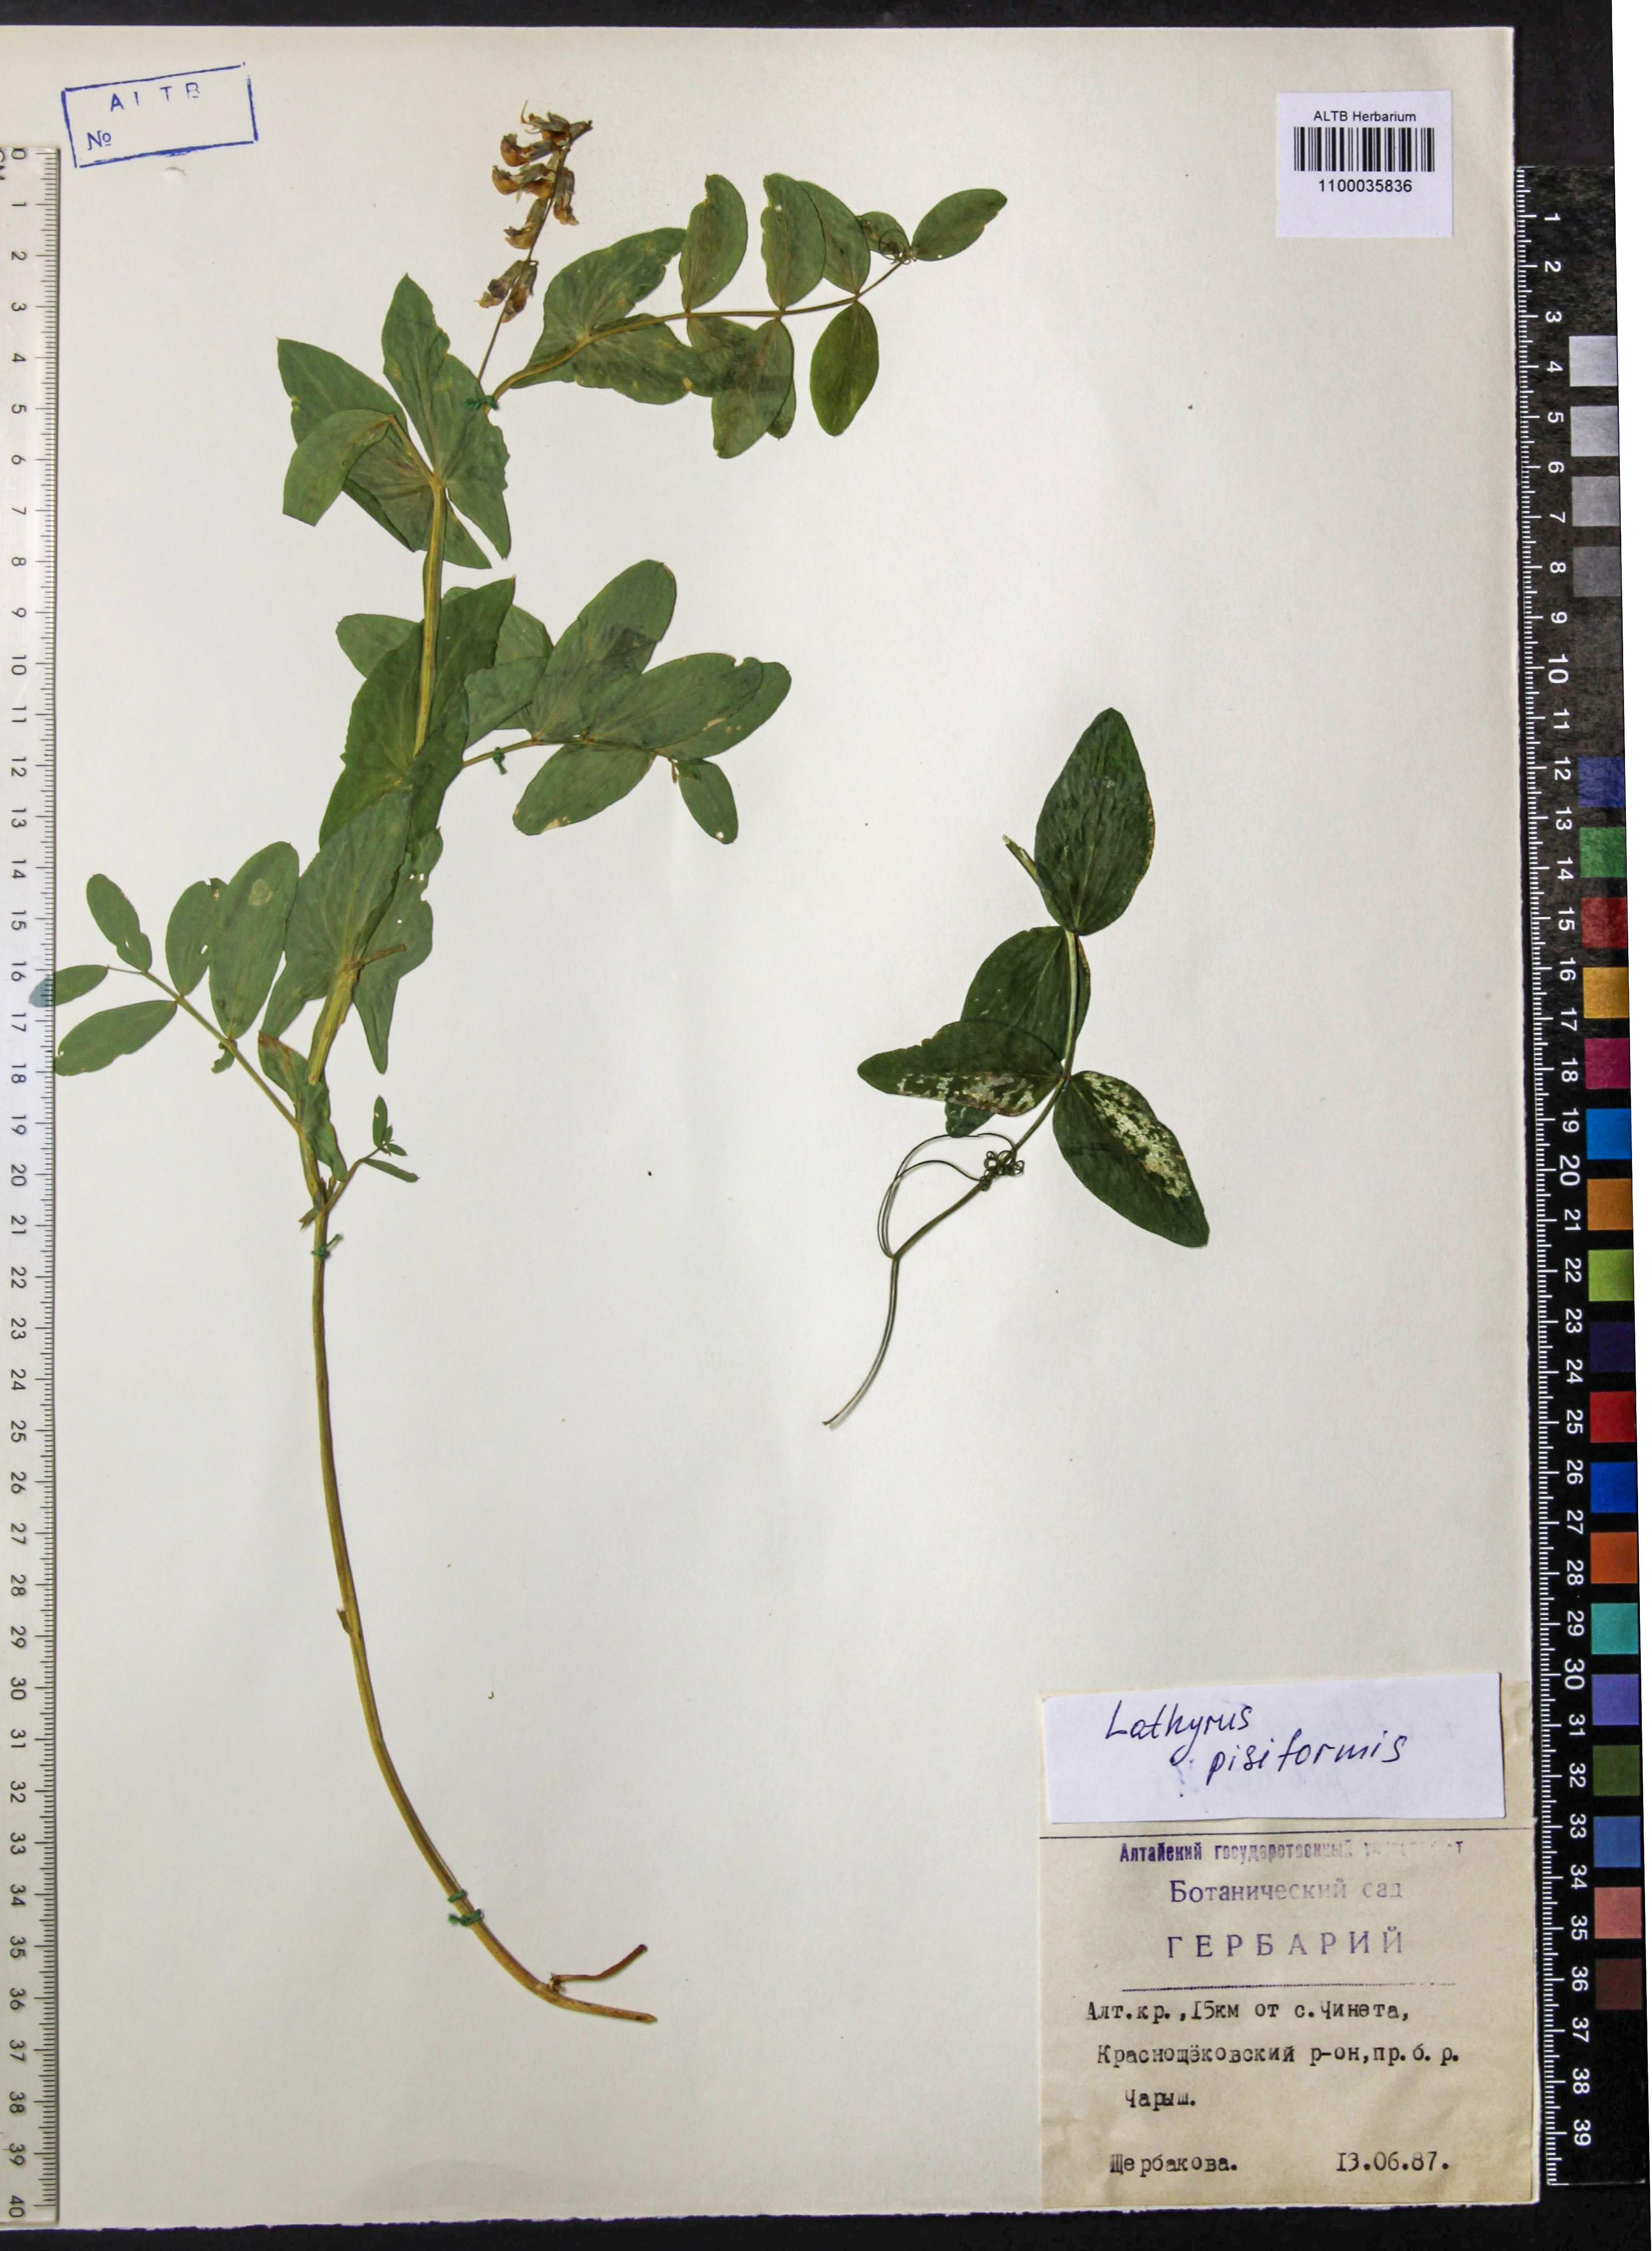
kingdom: Plantae
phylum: Tracheophyta
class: Magnoliopsida
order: Fabales
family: Fabaceae
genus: Lathyrus
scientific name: Lathyrus pisiformis
